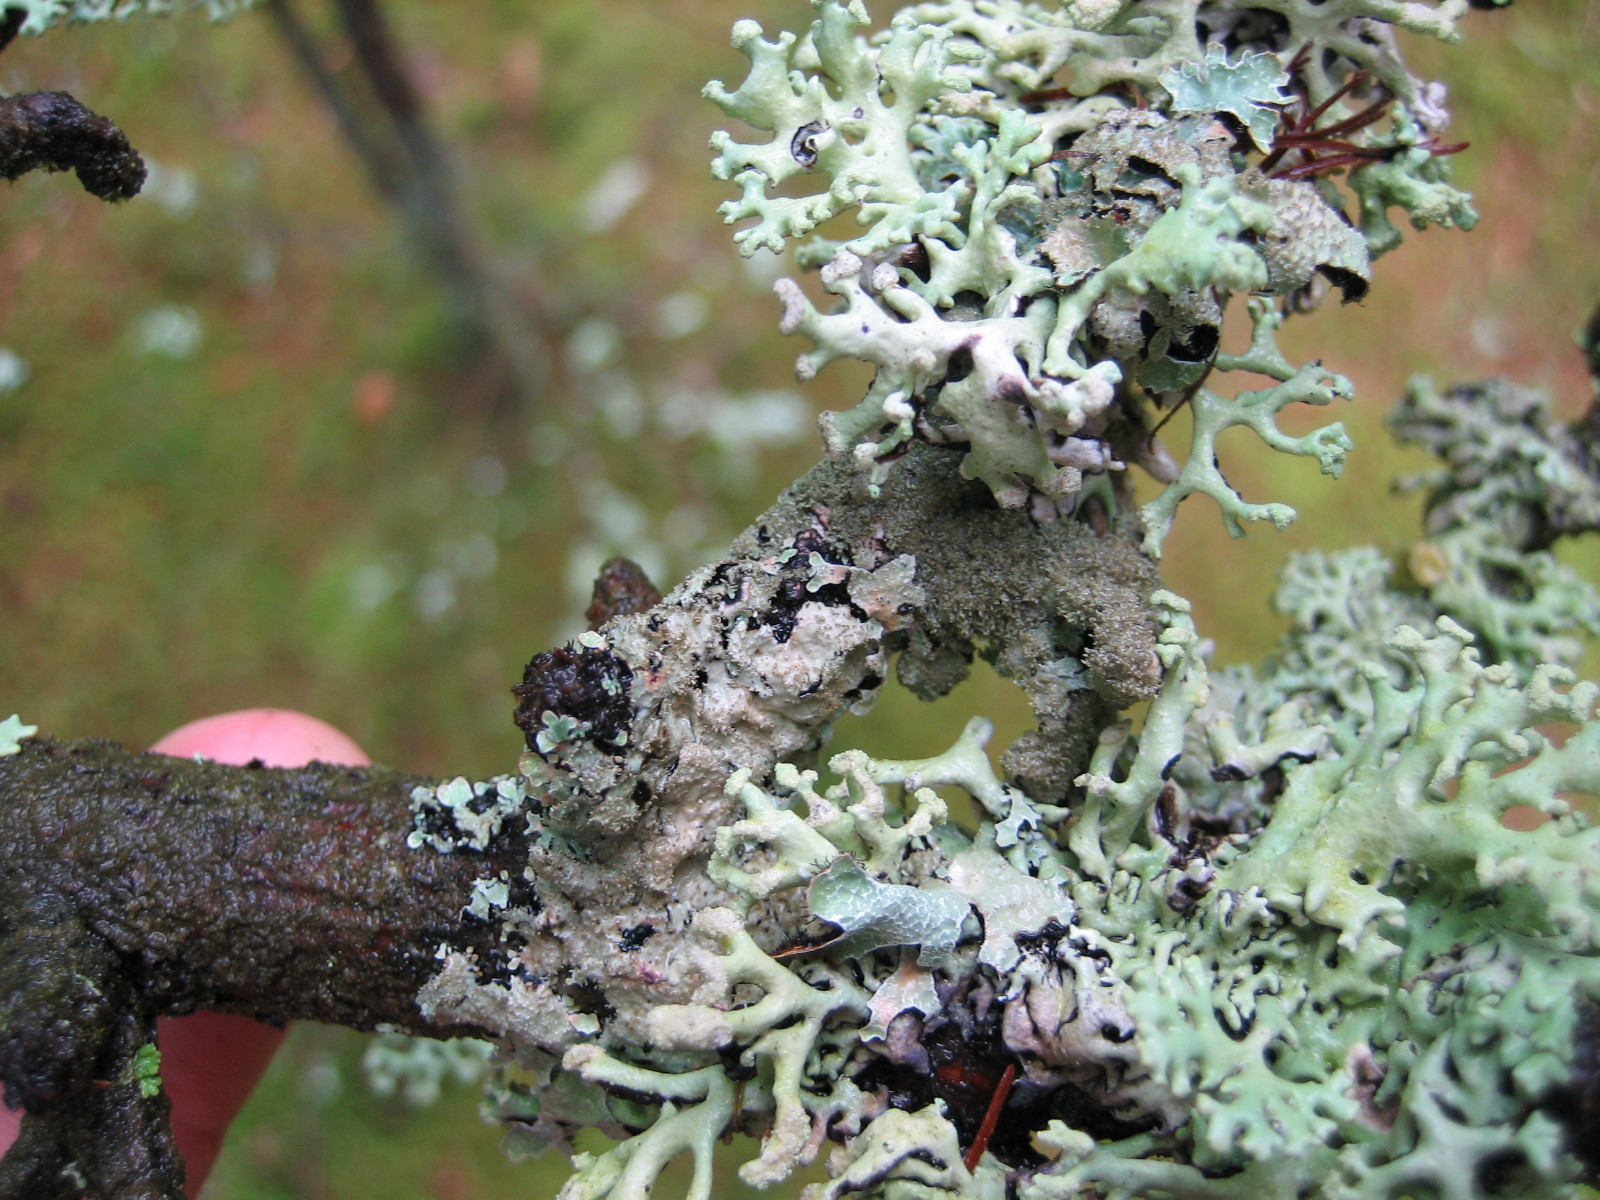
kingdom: Fungi
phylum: Ascomycota
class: Lecanoromycetes
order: Lecanorales
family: Parmeliaceae
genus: Parmelia
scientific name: Parmelia
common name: farve-skållav
